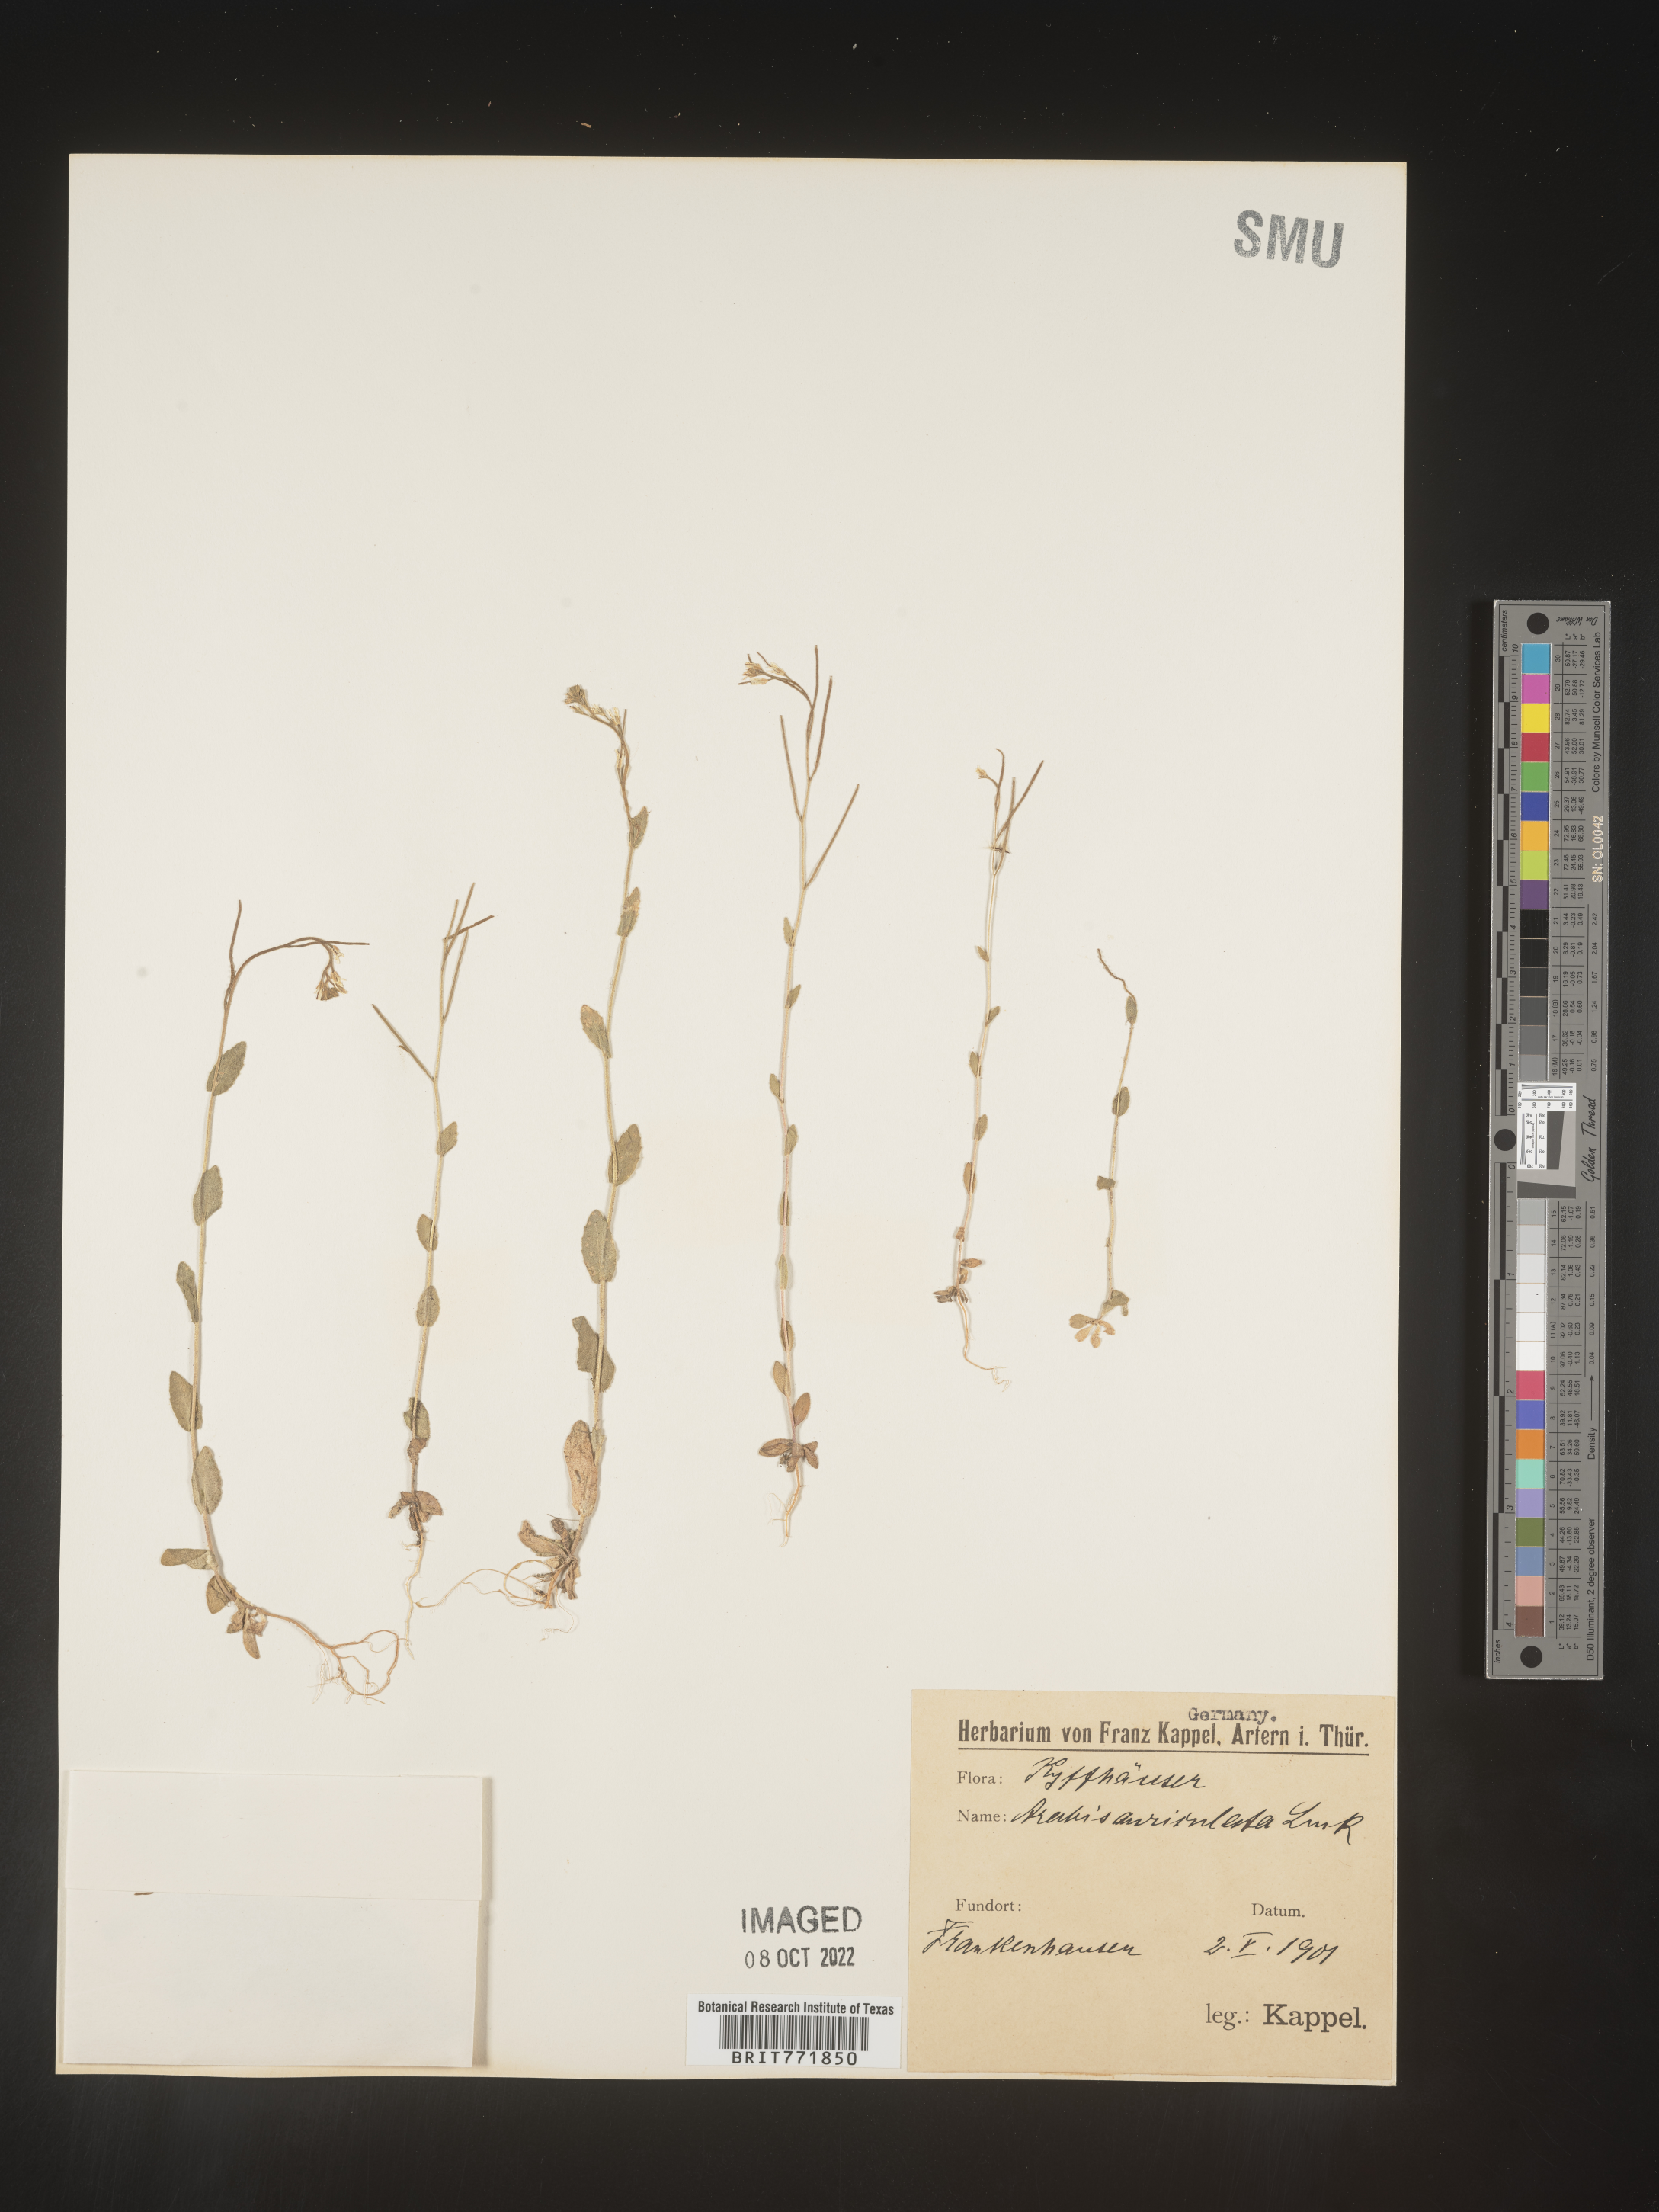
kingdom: Plantae
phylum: Tracheophyta
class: Magnoliopsida
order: Brassicales
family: Brassicaceae
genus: Arabis
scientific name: Arabis
